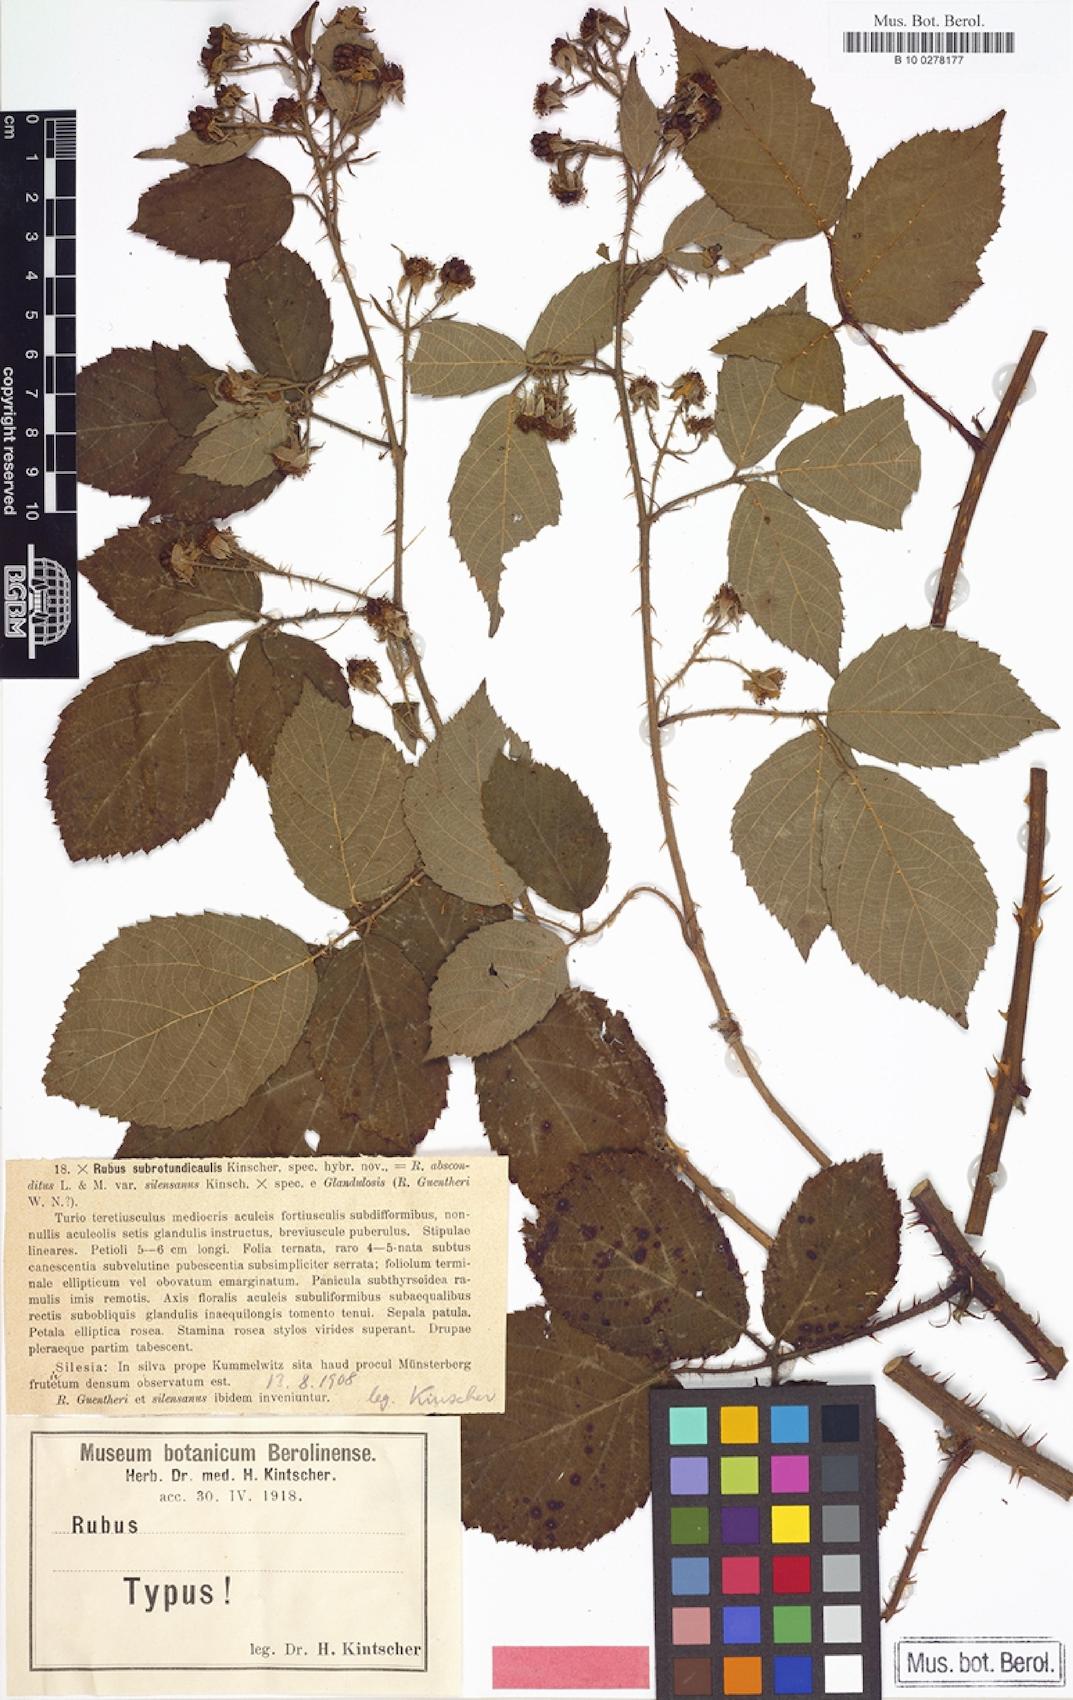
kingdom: Plantae
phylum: Tracheophyta
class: Magnoliopsida
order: Rosales
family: Rosaceae
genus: Rubus
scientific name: Rubus subrotundicaulis
